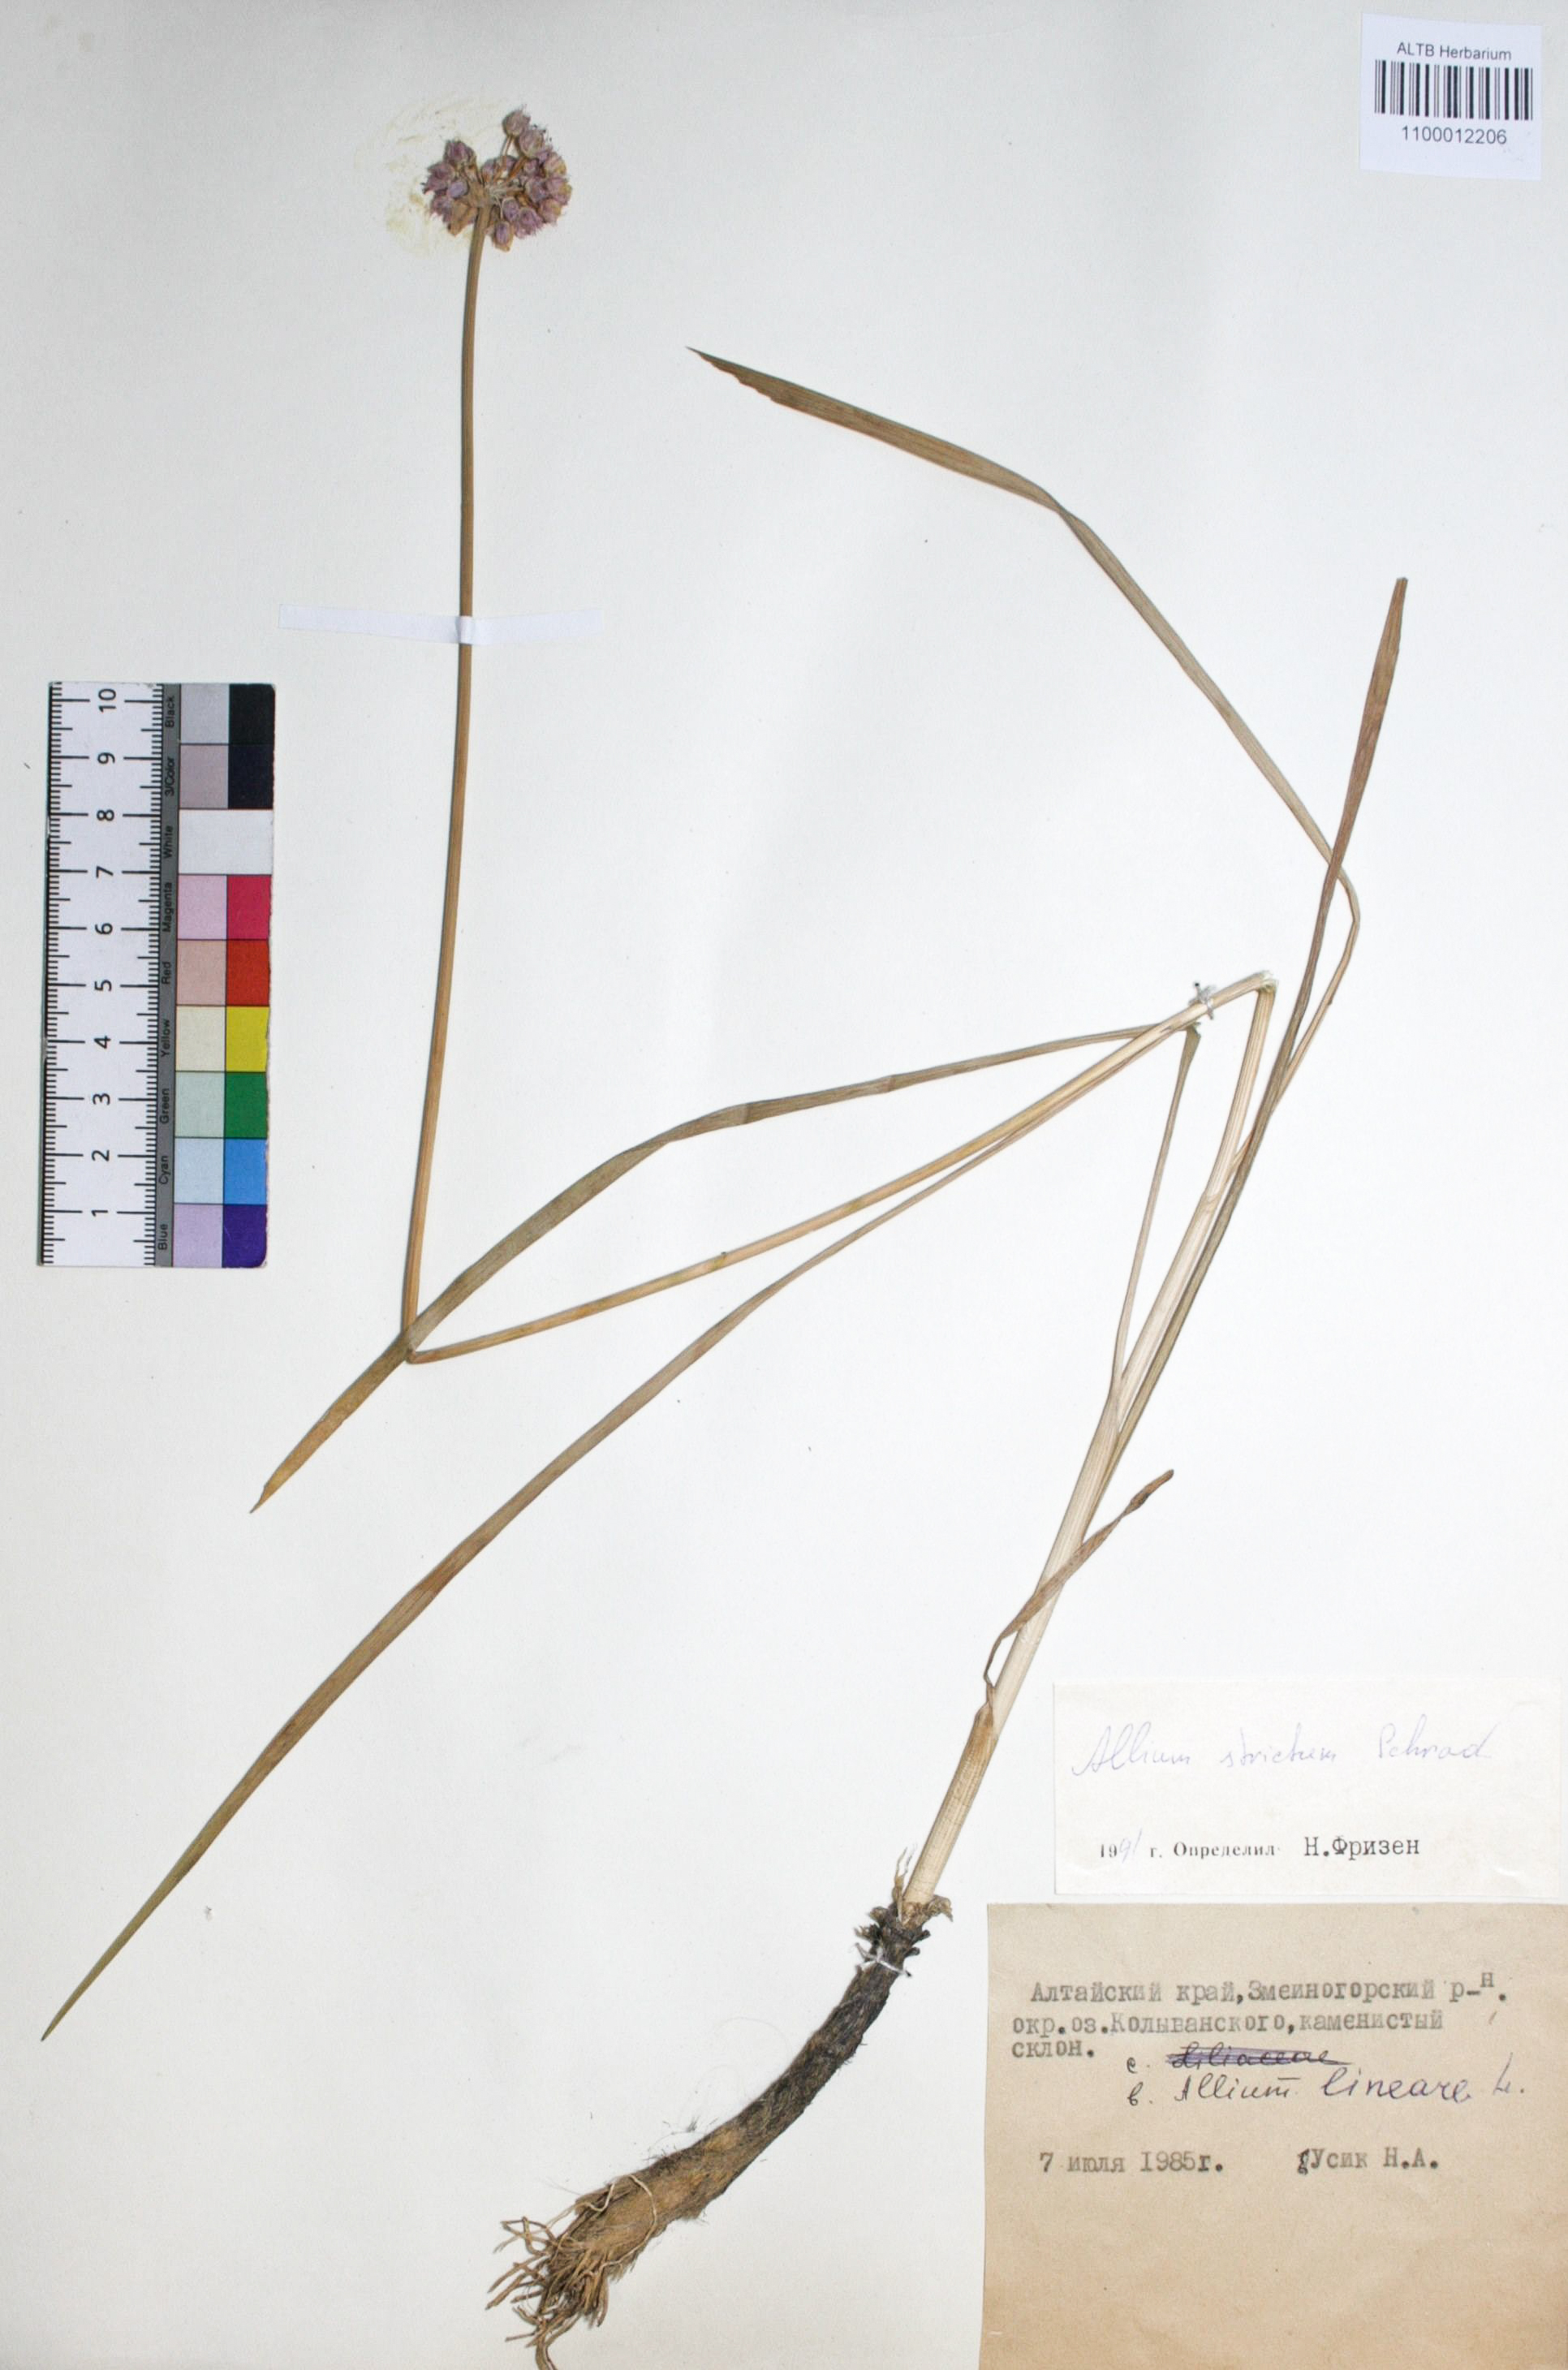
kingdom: Plantae
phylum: Tracheophyta
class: Liliopsida
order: Asparagales
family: Amaryllidaceae
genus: Allium
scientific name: Allium strictum
